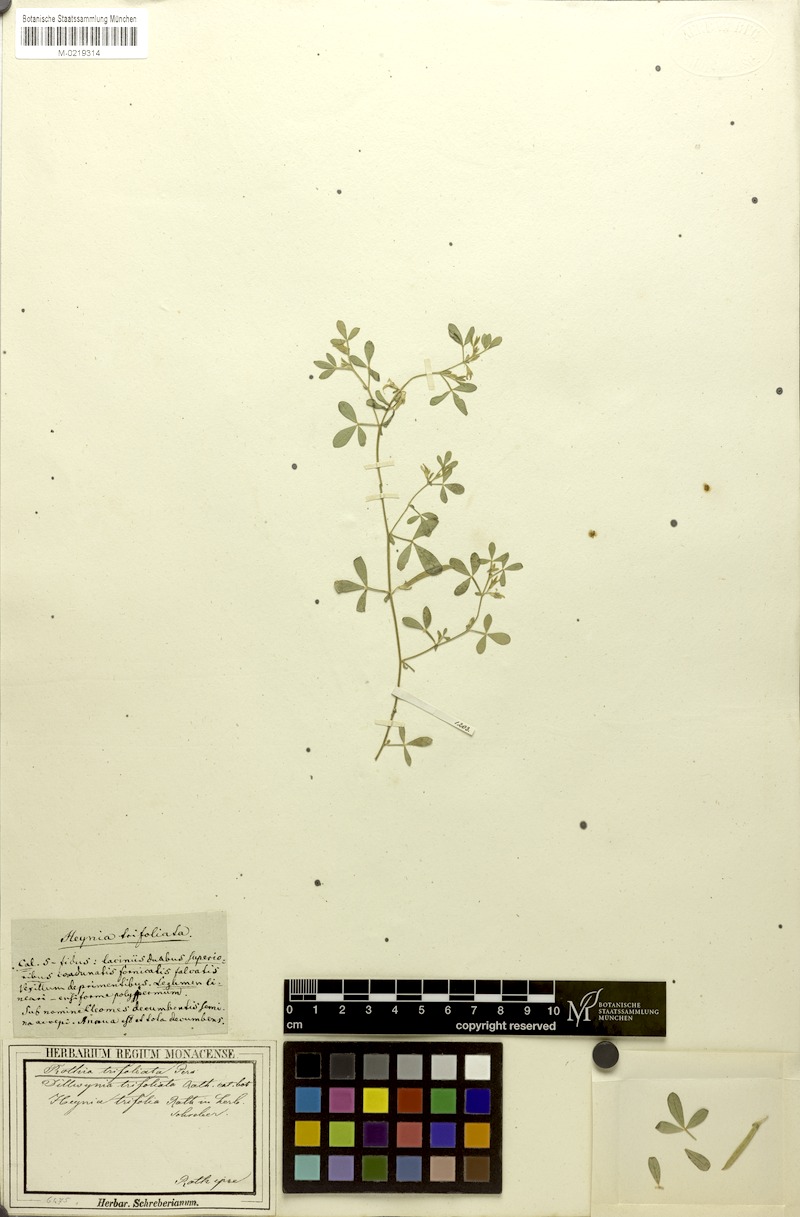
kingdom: Plantae
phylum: Tracheophyta
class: Magnoliopsida
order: Fabales
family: Fabaceae
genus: Rothia
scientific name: Rothia indica
